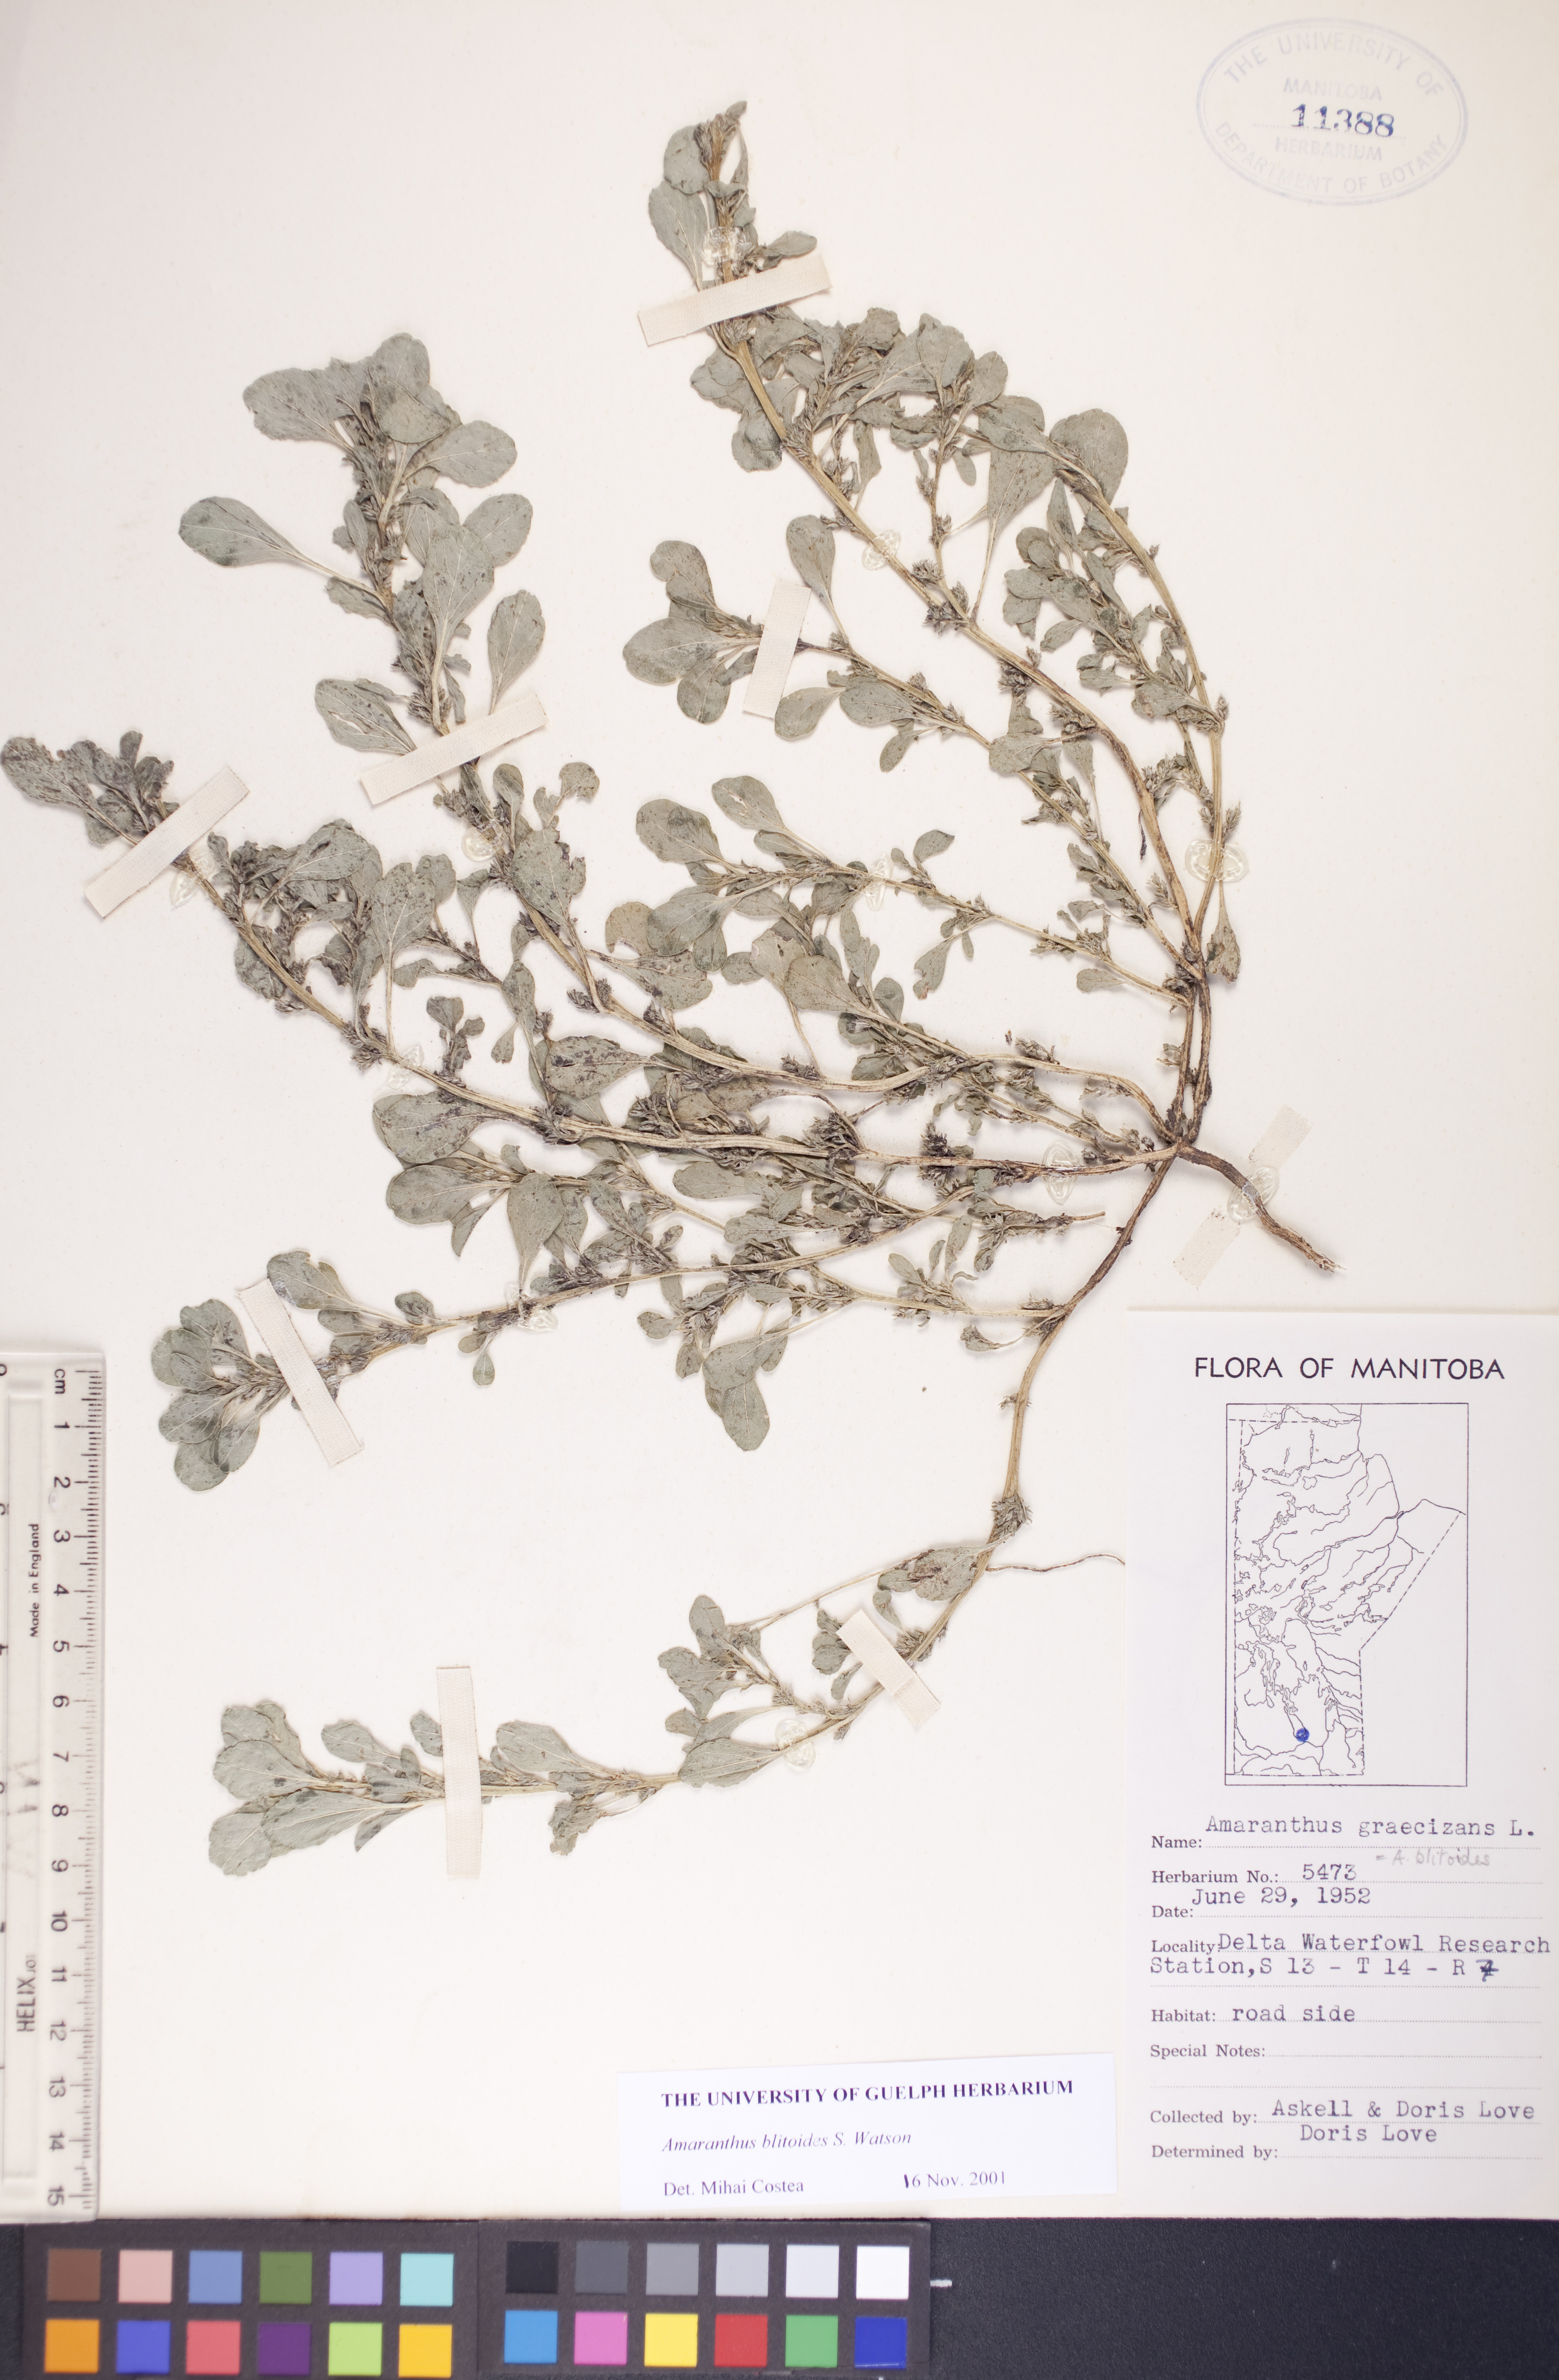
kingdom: Plantae
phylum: Tracheophyta
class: Magnoliopsida
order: Caryophyllales
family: Amaranthaceae
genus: Amaranthus
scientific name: Amaranthus blitoides
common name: Prostrate pigweed
